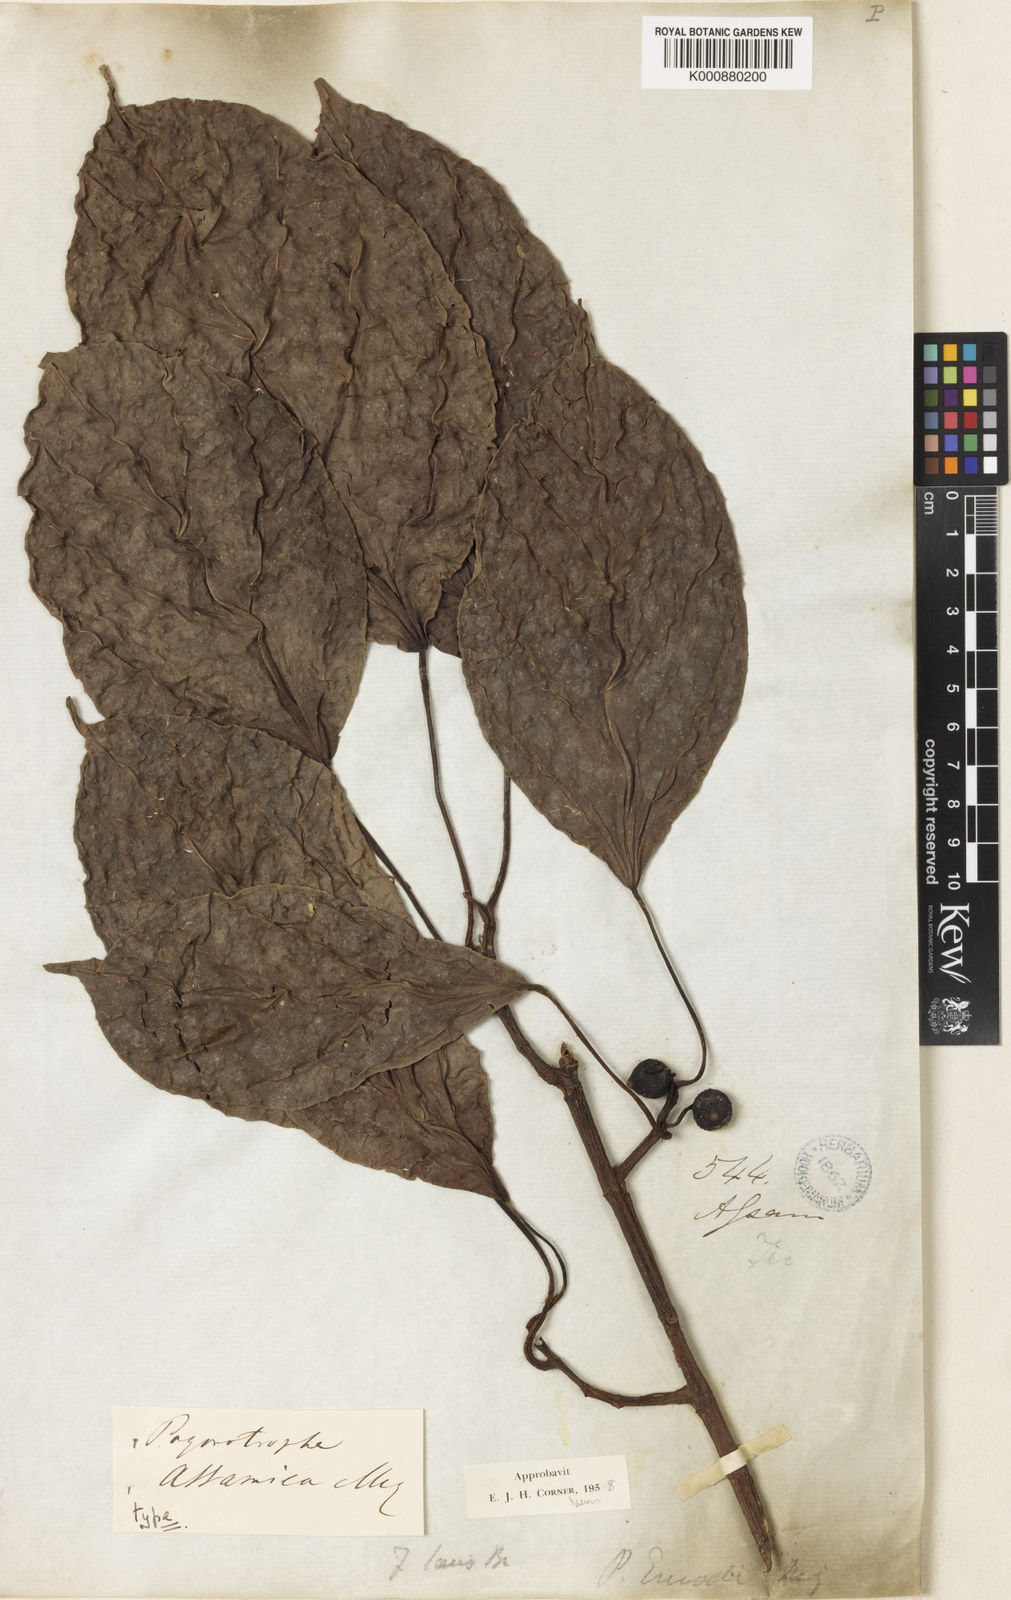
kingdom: Plantae
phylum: Tracheophyta
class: Magnoliopsida
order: Rosales
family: Moraceae
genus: Ficus
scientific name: Ficus laevis
